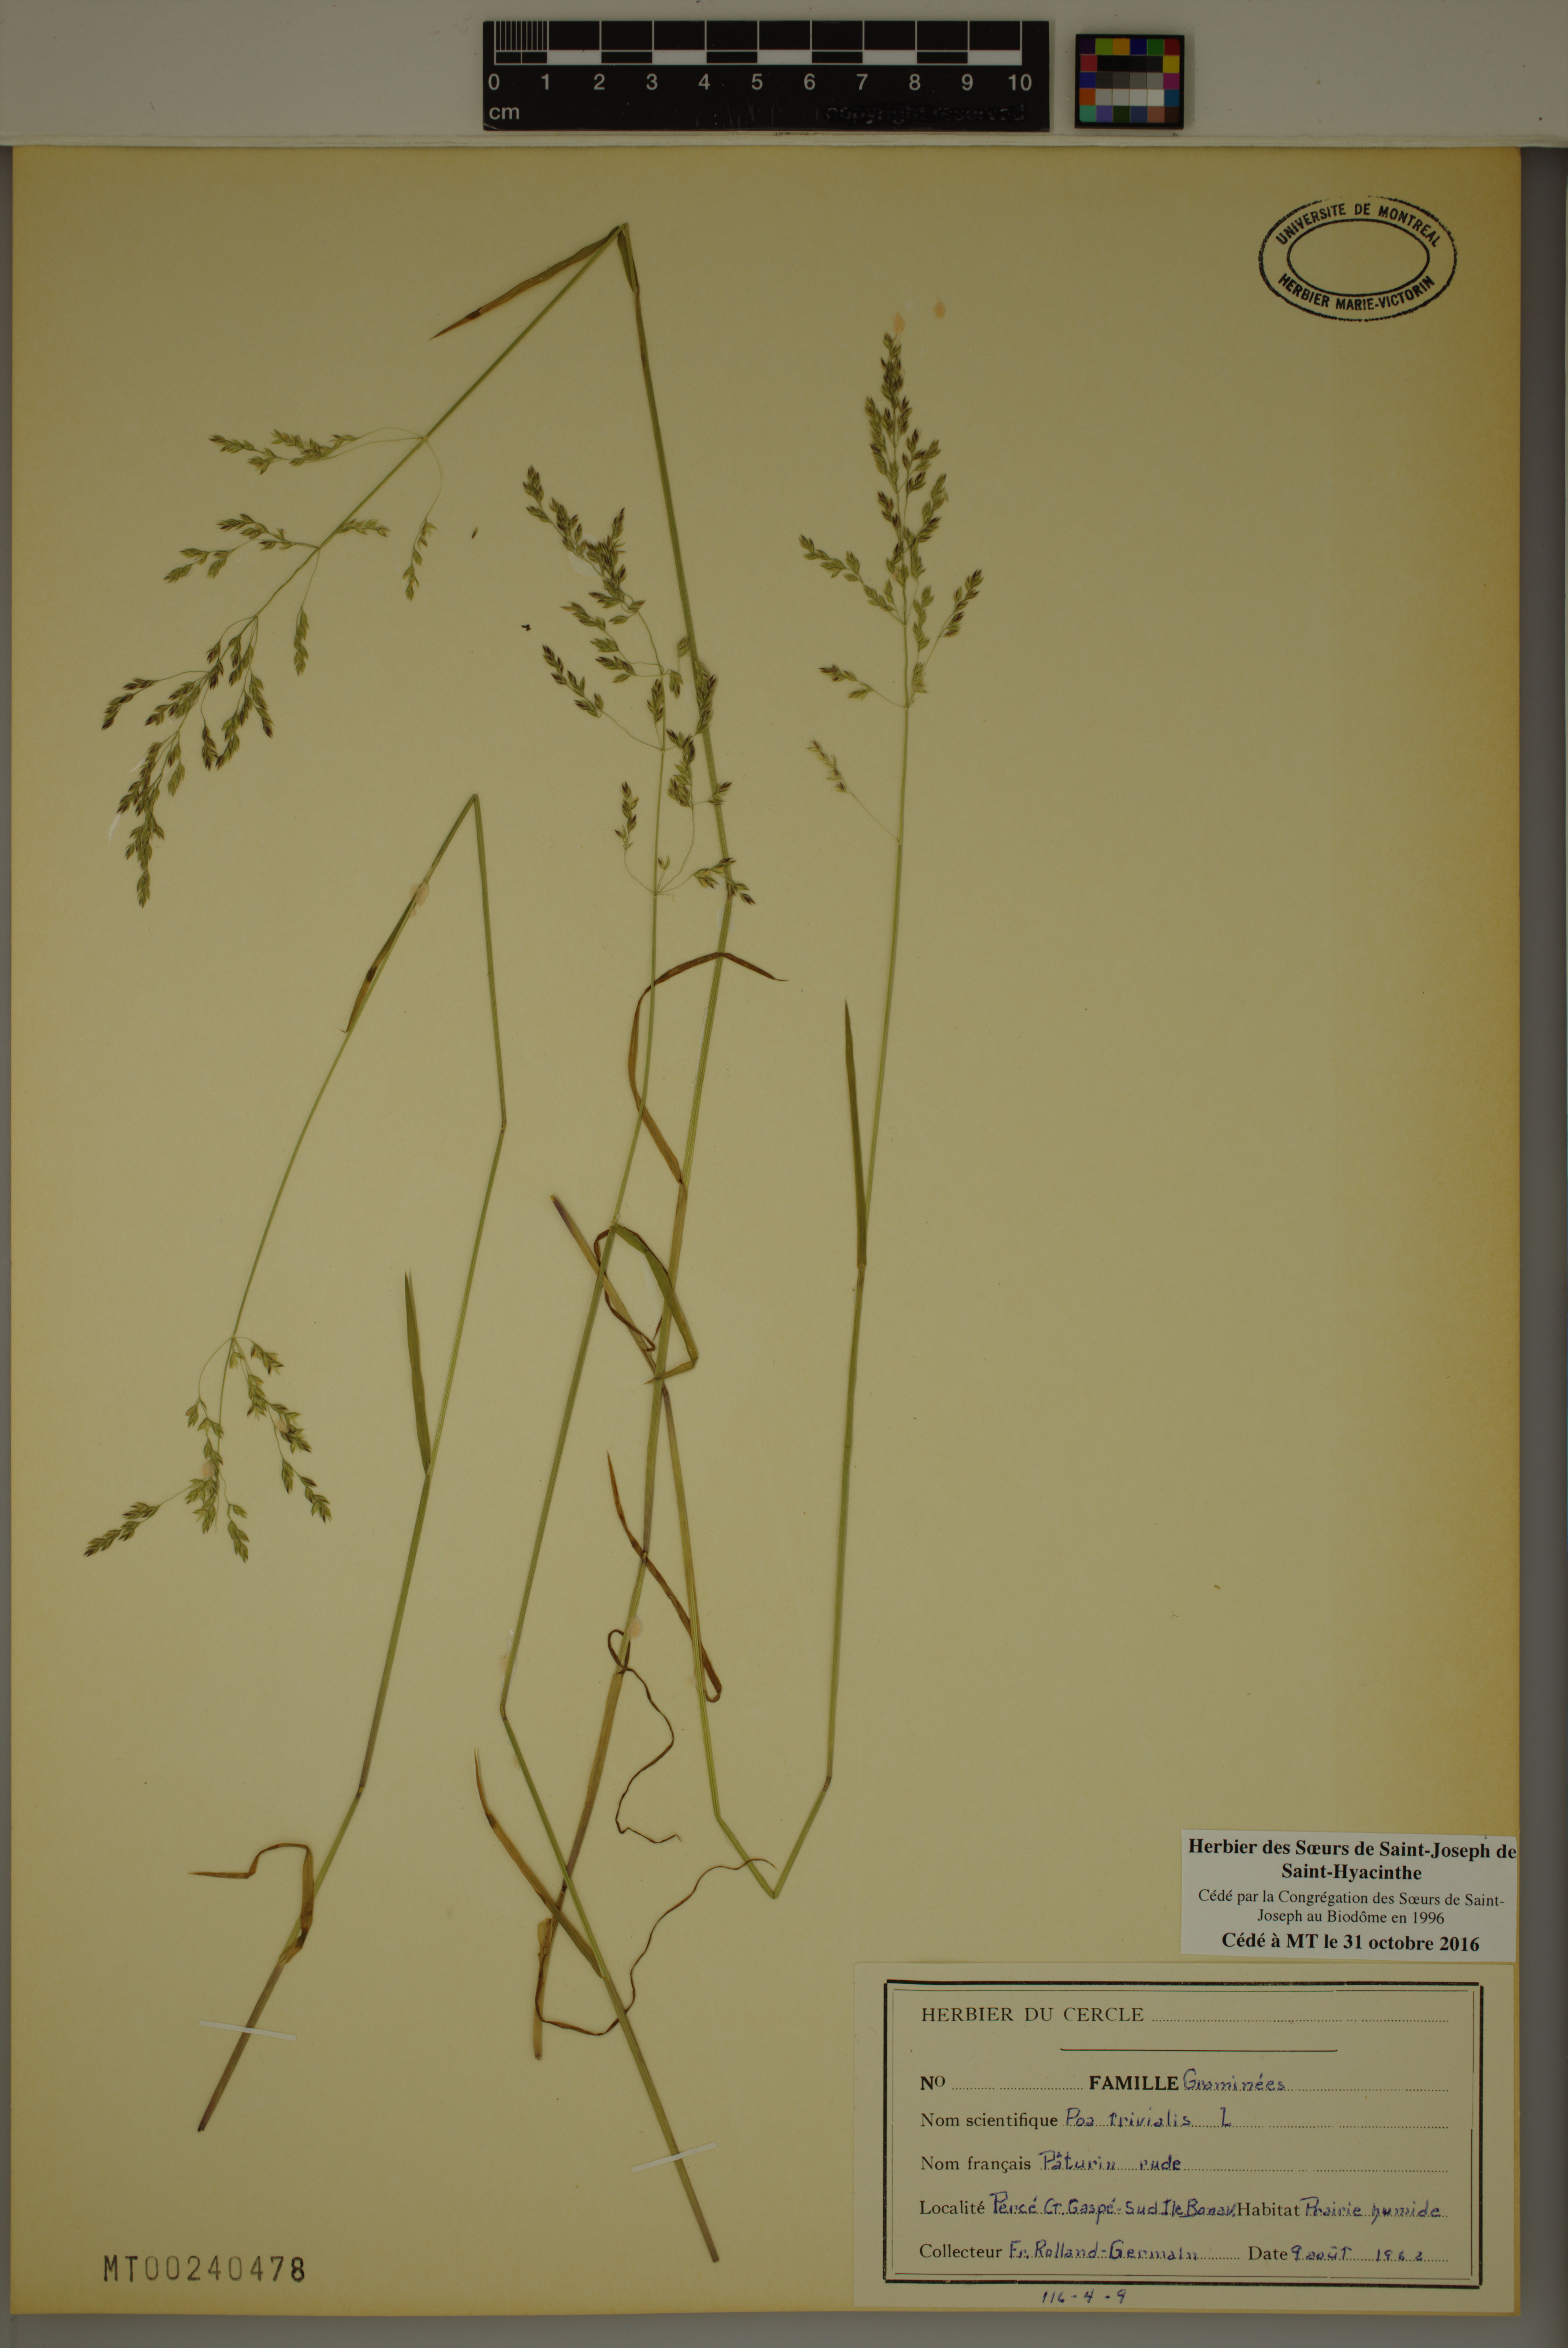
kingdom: Plantae
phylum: Tracheophyta
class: Liliopsida
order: Poales
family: Poaceae
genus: Poa
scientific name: Poa trivialis
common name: Rough bluegrass
